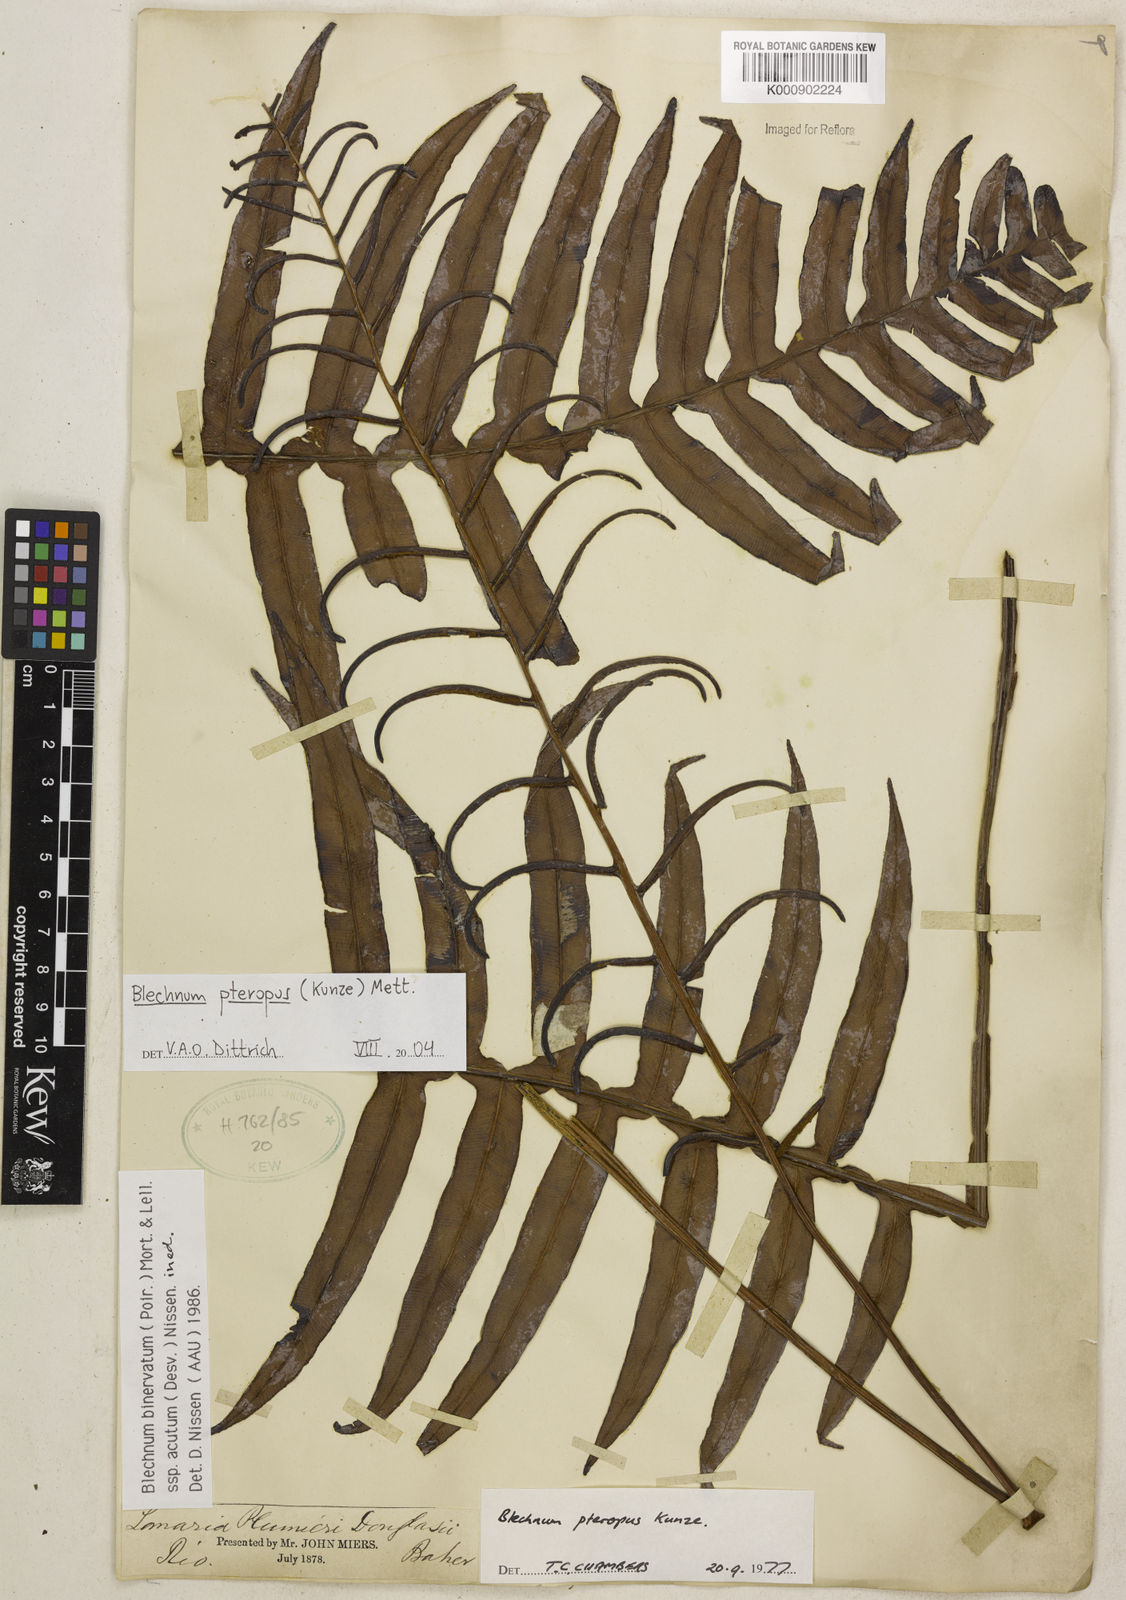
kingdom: Plantae
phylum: Tracheophyta
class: Polypodiopsida
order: Polypodiales
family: Blechnaceae
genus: Lomaridium
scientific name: Lomaridium pteropus
